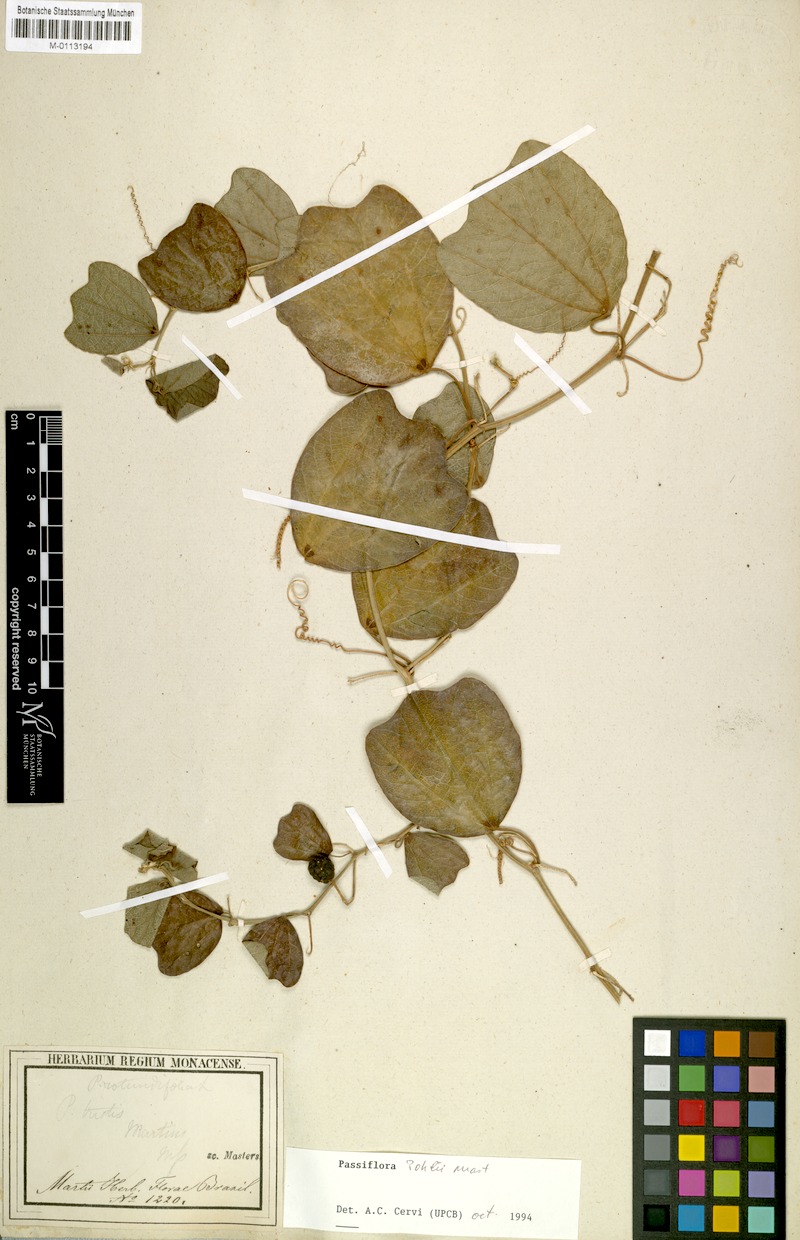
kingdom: Plantae
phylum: Tracheophyta
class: Magnoliopsida
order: Malpighiales
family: Passifloraceae
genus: Passiflora
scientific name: Passiflora pohlii
